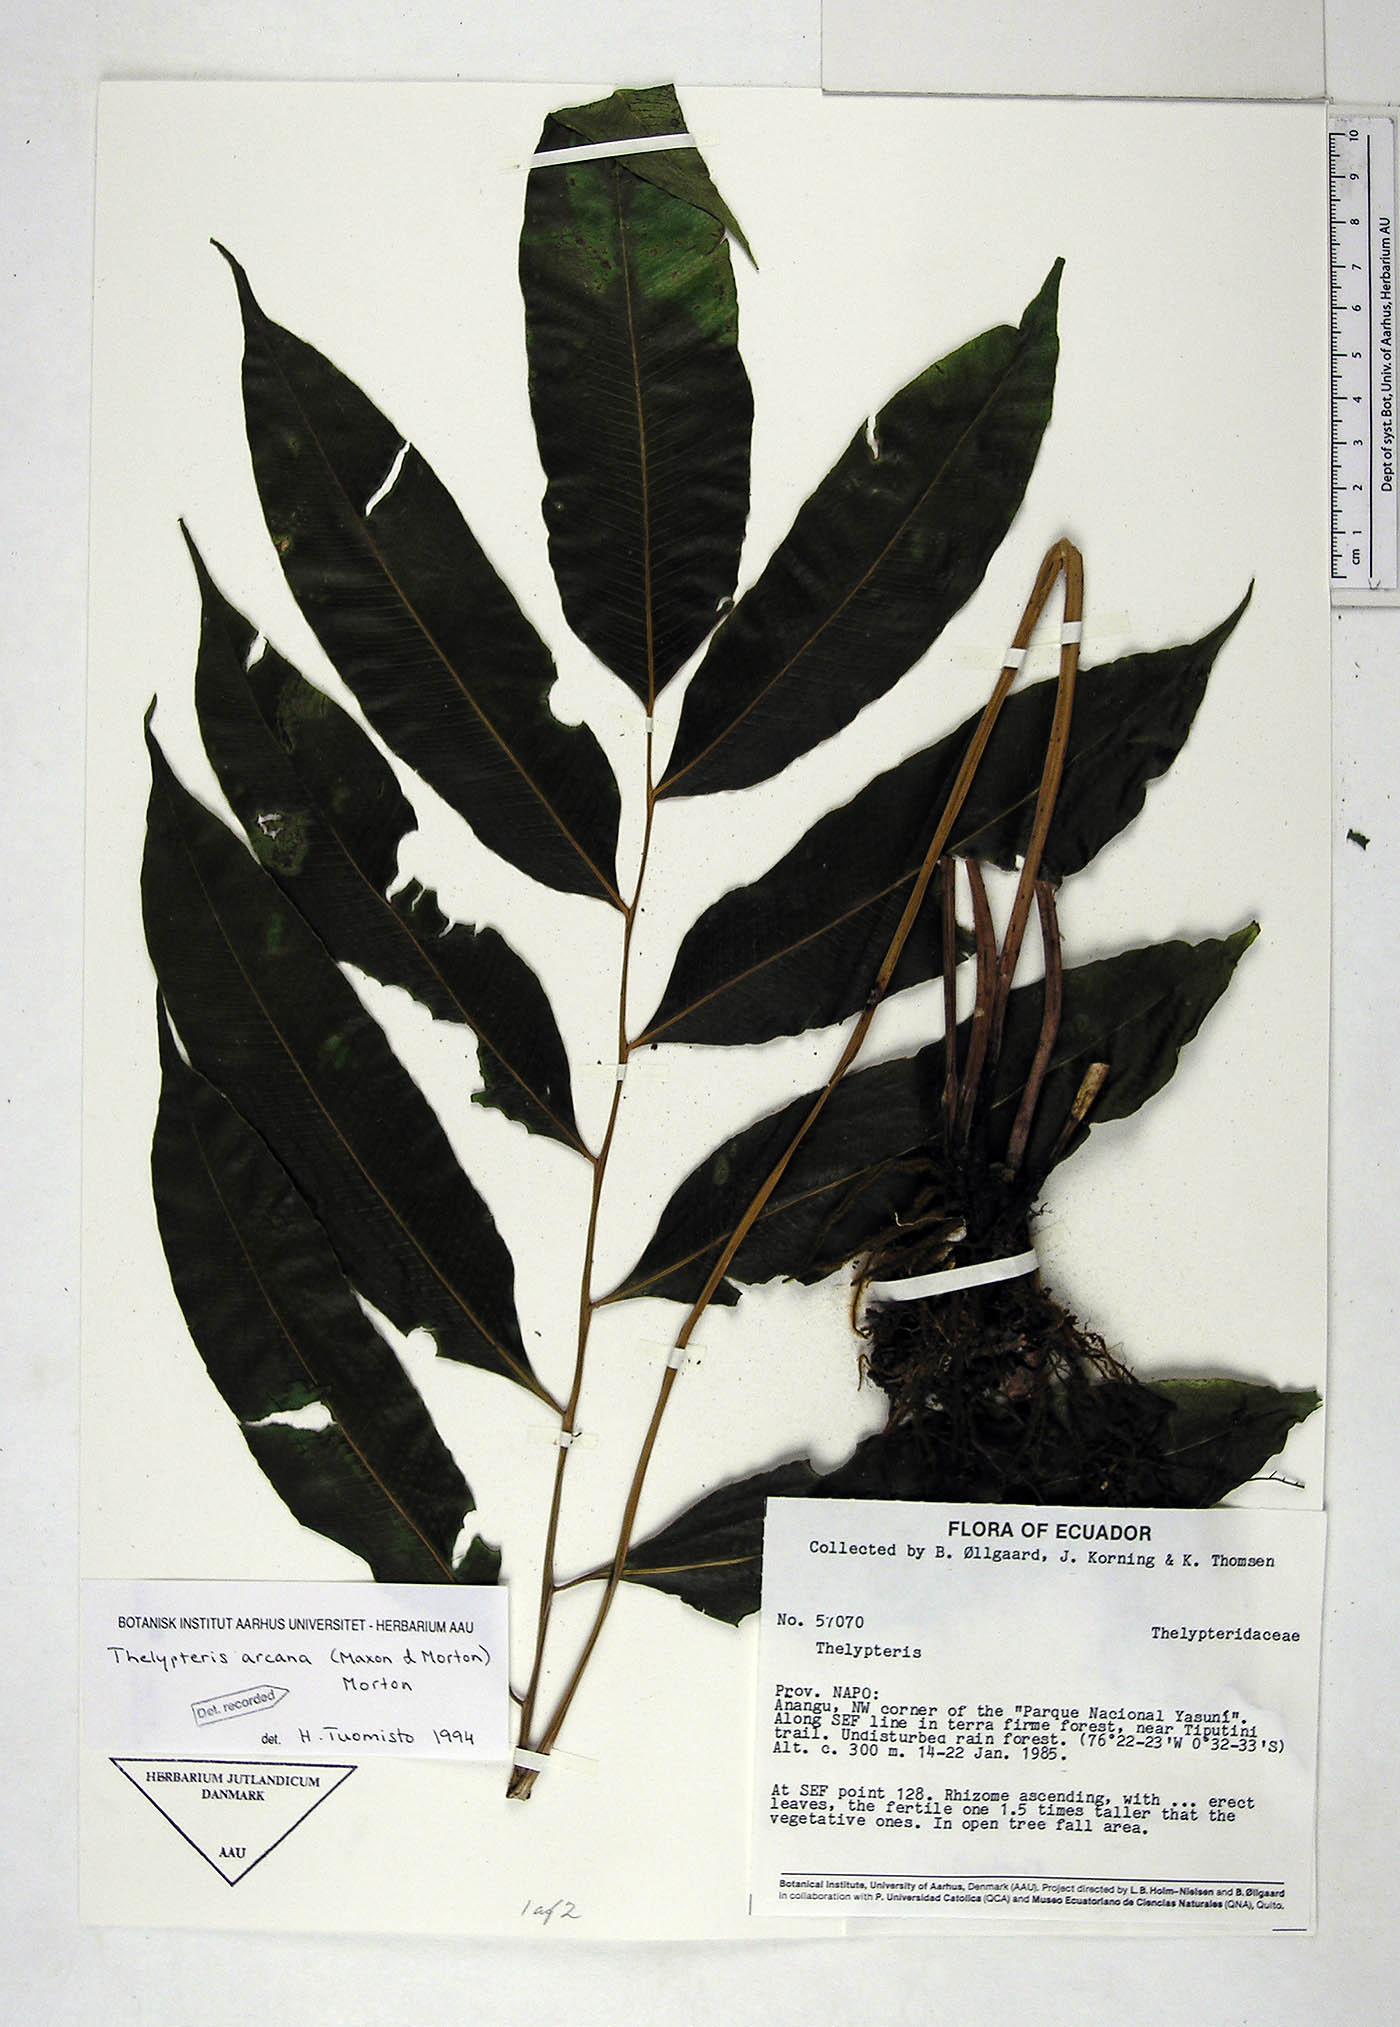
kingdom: Plantae
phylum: Tracheophyta
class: Polypodiopsida
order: Polypodiales
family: Thelypteridaceae
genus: Meniscium
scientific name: Meniscium arcanum
